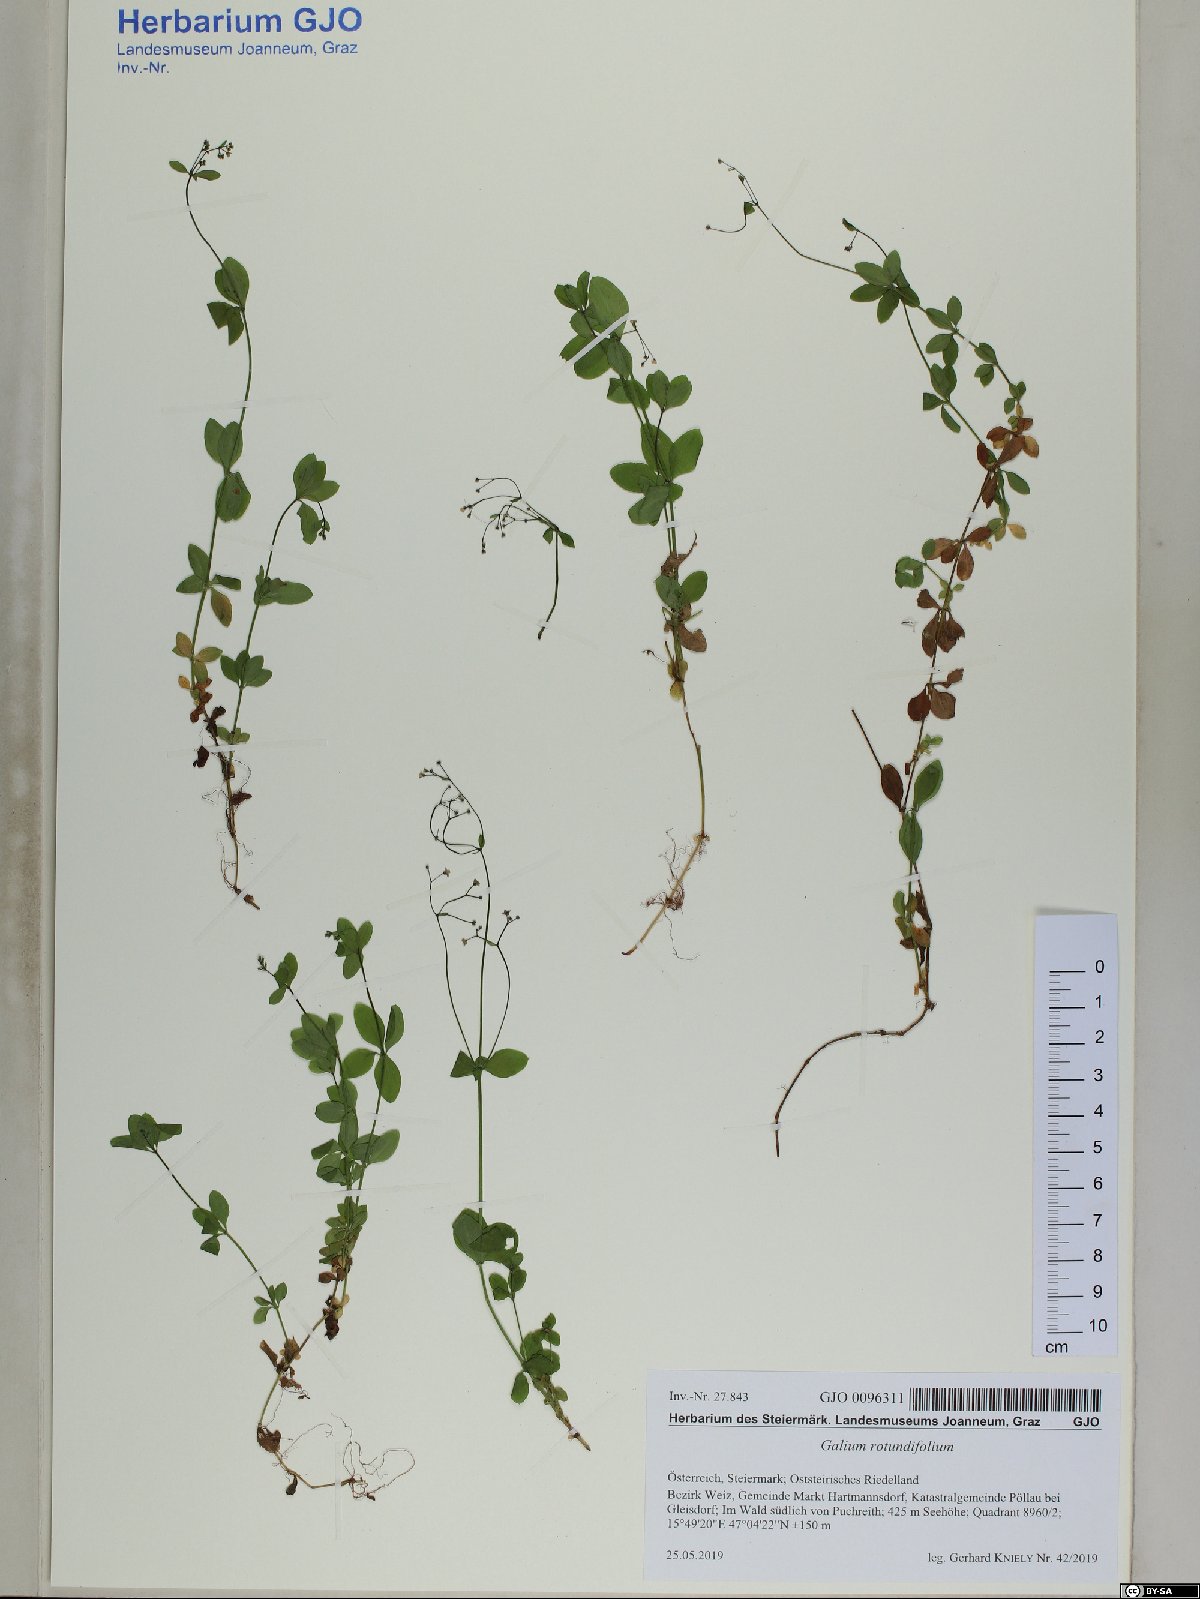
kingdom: Plantae
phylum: Tracheophyta
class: Magnoliopsida
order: Gentianales
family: Rubiaceae
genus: Galium
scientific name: Galium rotundifolium
